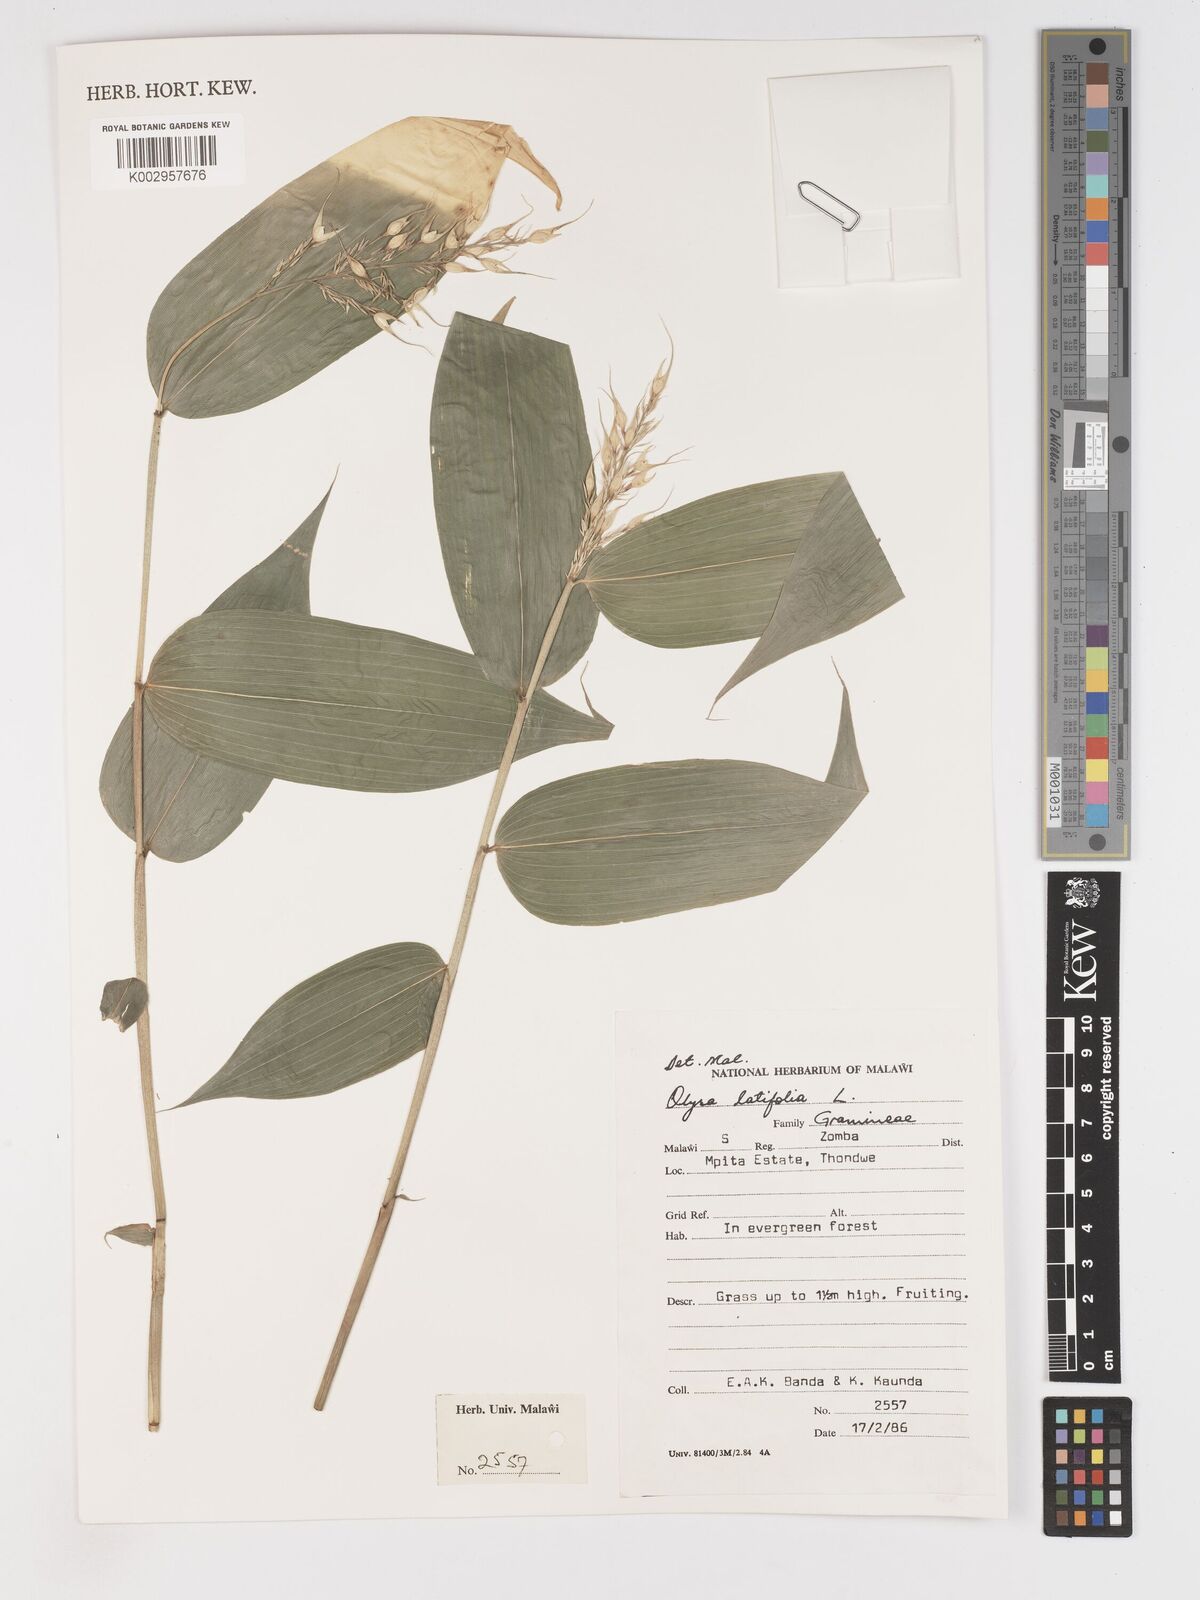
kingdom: Plantae
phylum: Tracheophyta
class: Liliopsida
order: Poales
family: Poaceae
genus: Olyra
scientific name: Olyra latifolia
